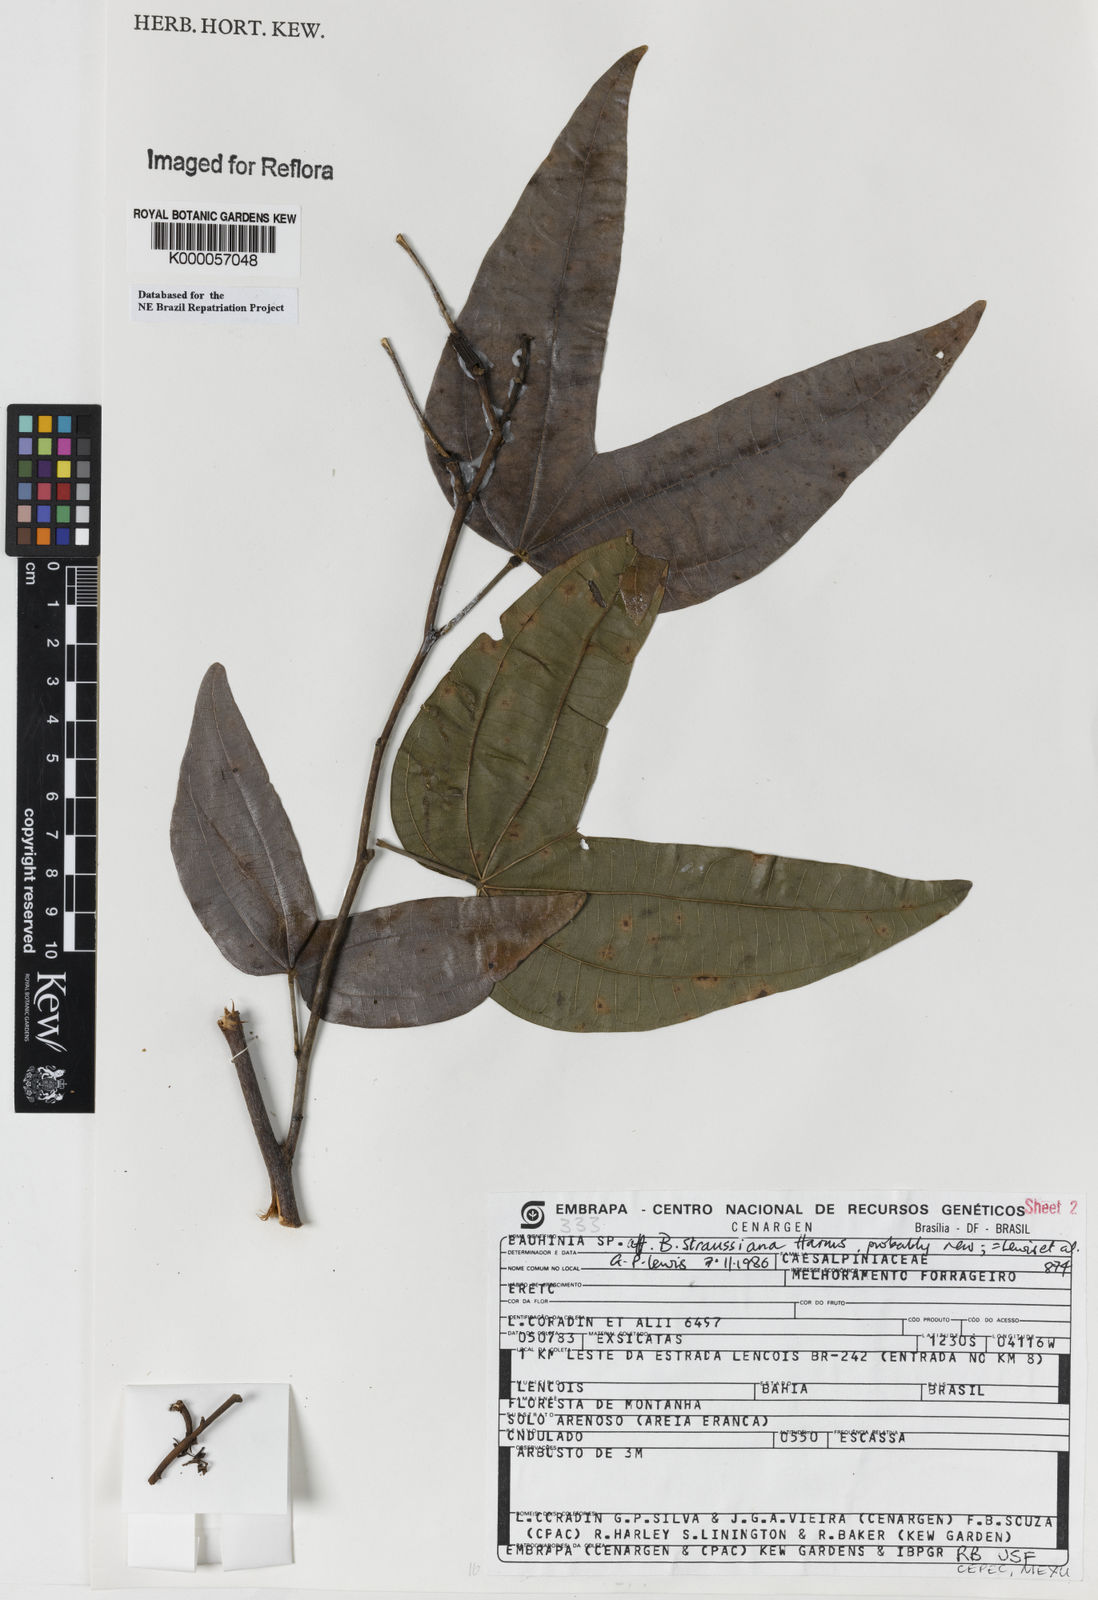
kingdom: Plantae
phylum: Tracheophyta
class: Magnoliopsida
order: Fabales
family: Fabaceae
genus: Bauhinia
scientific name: Bauhinia conwayi
